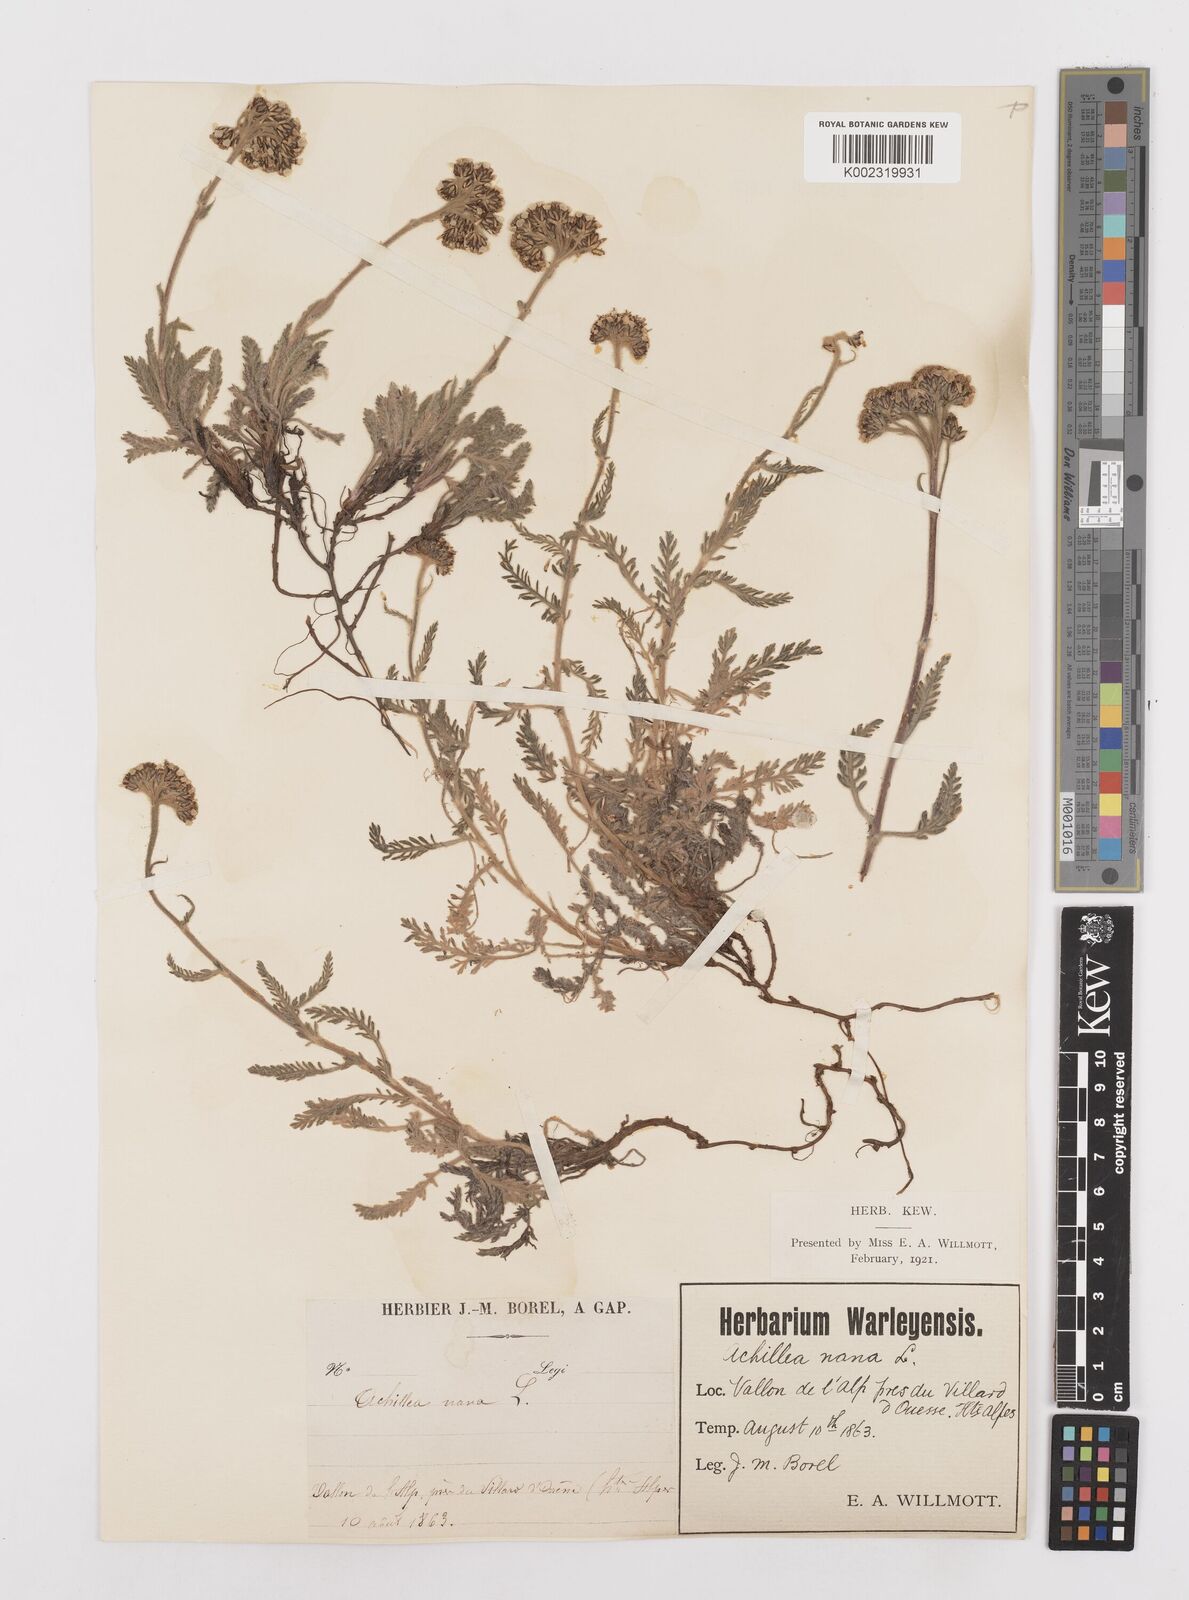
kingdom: Plantae
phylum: Tracheophyta
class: Magnoliopsida
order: Asterales
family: Asteraceae
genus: Achillea
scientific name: Achillea
